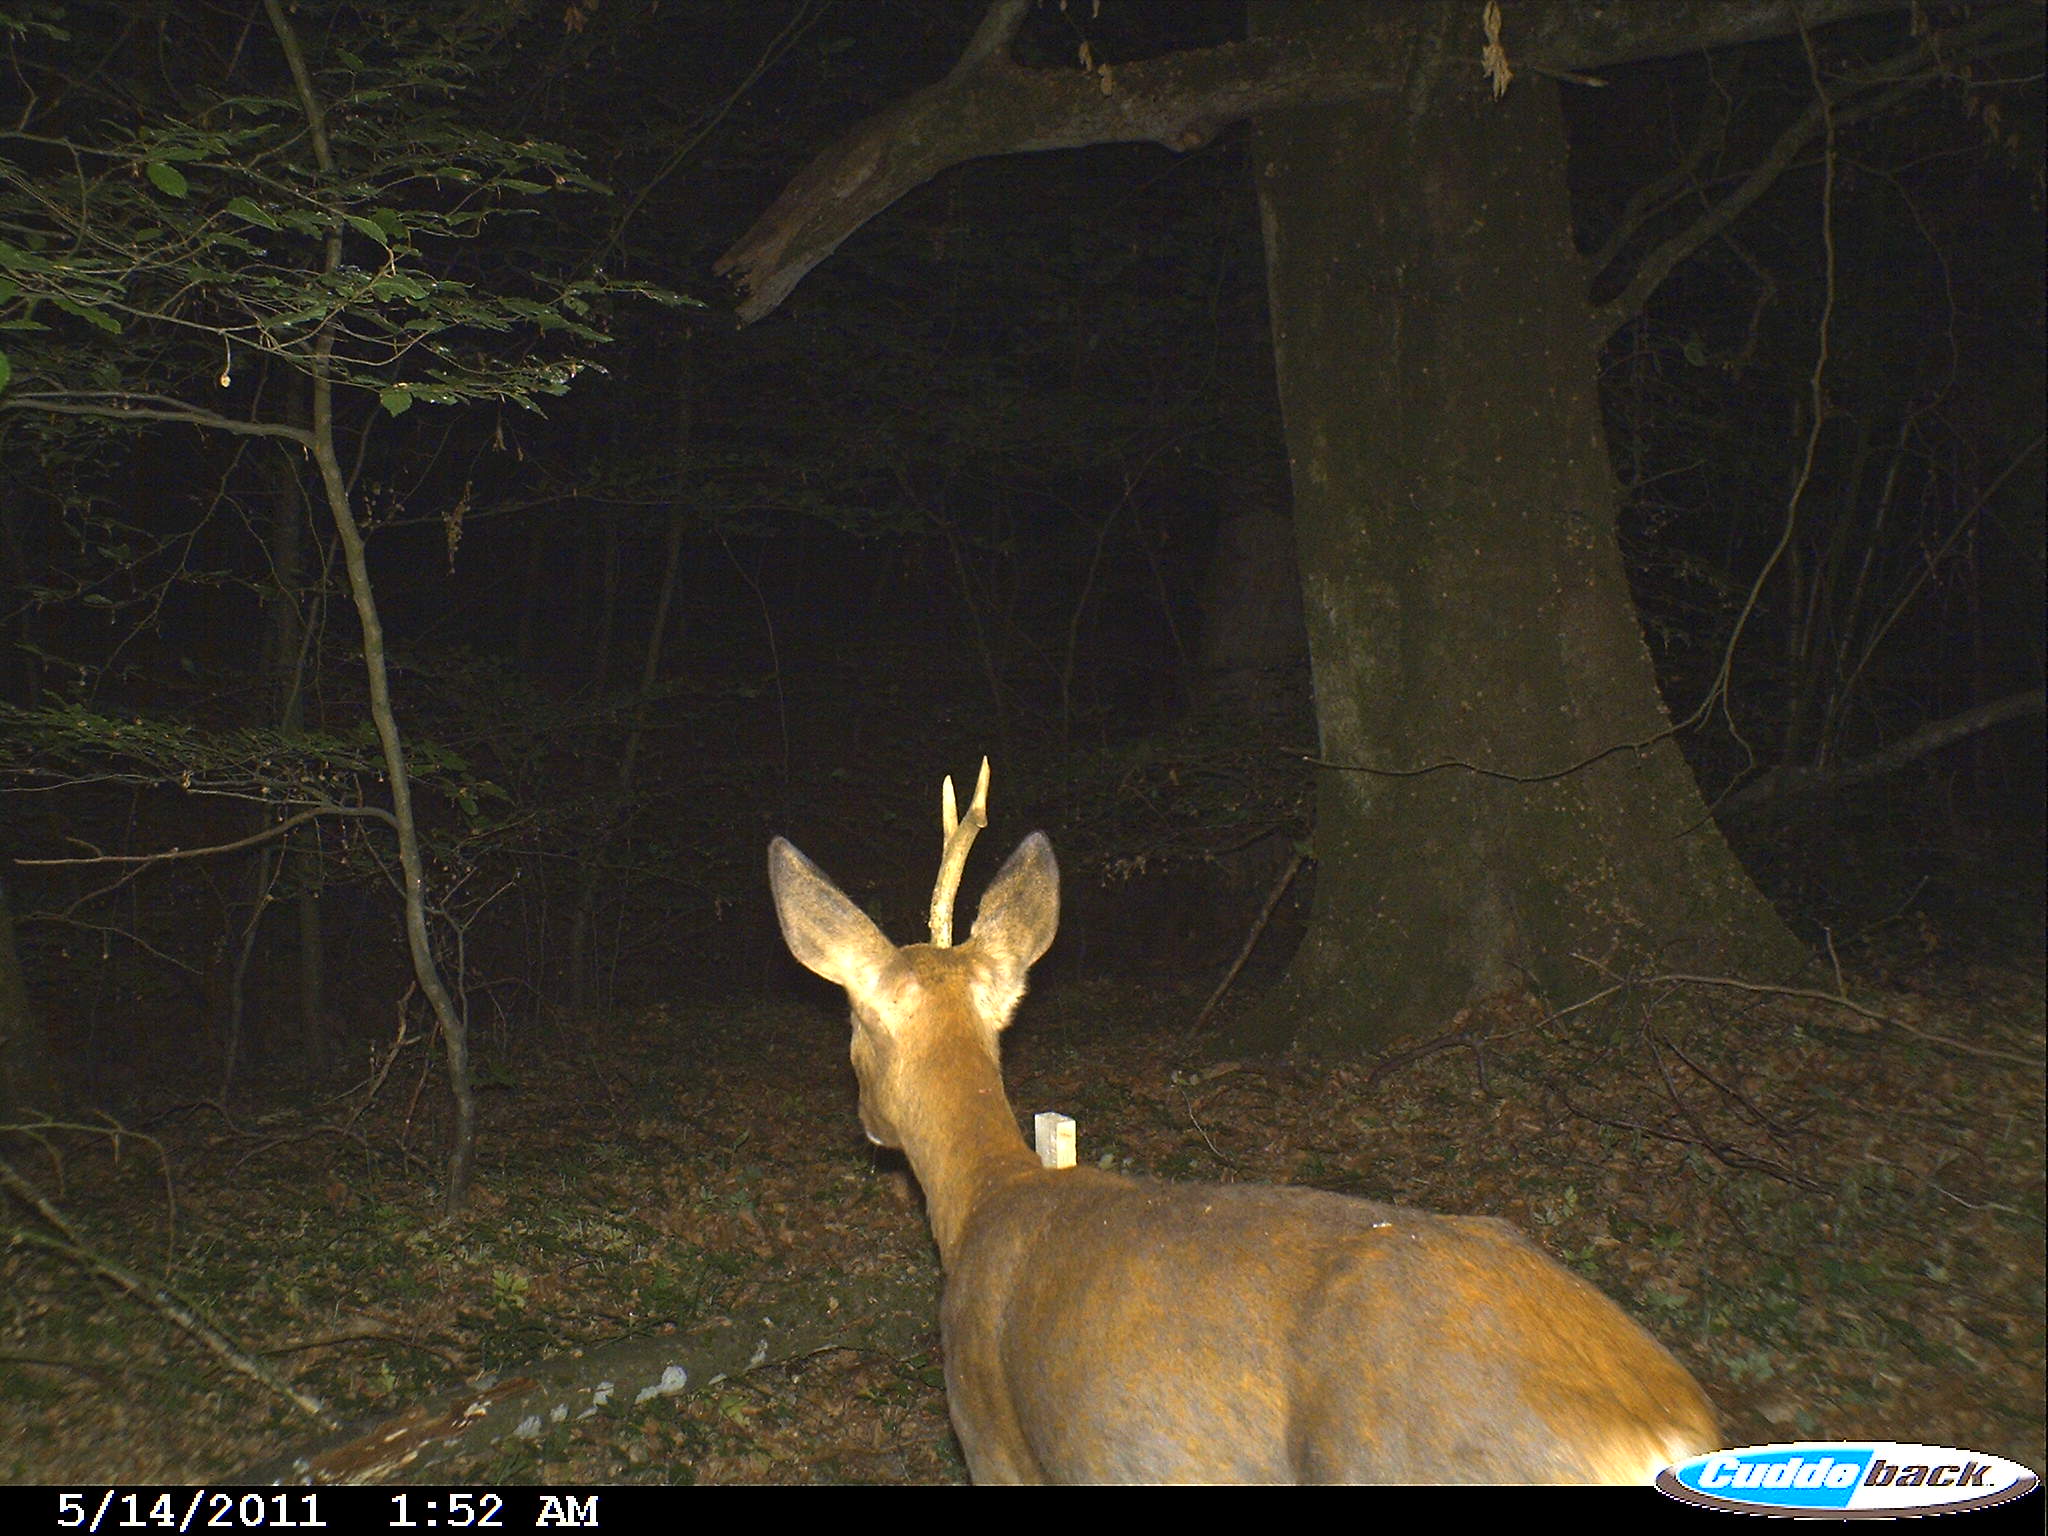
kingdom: Animalia
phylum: Chordata
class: Mammalia
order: Artiodactyla
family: Cervidae
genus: Capreolus
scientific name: Capreolus capreolus
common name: Western roe deer
